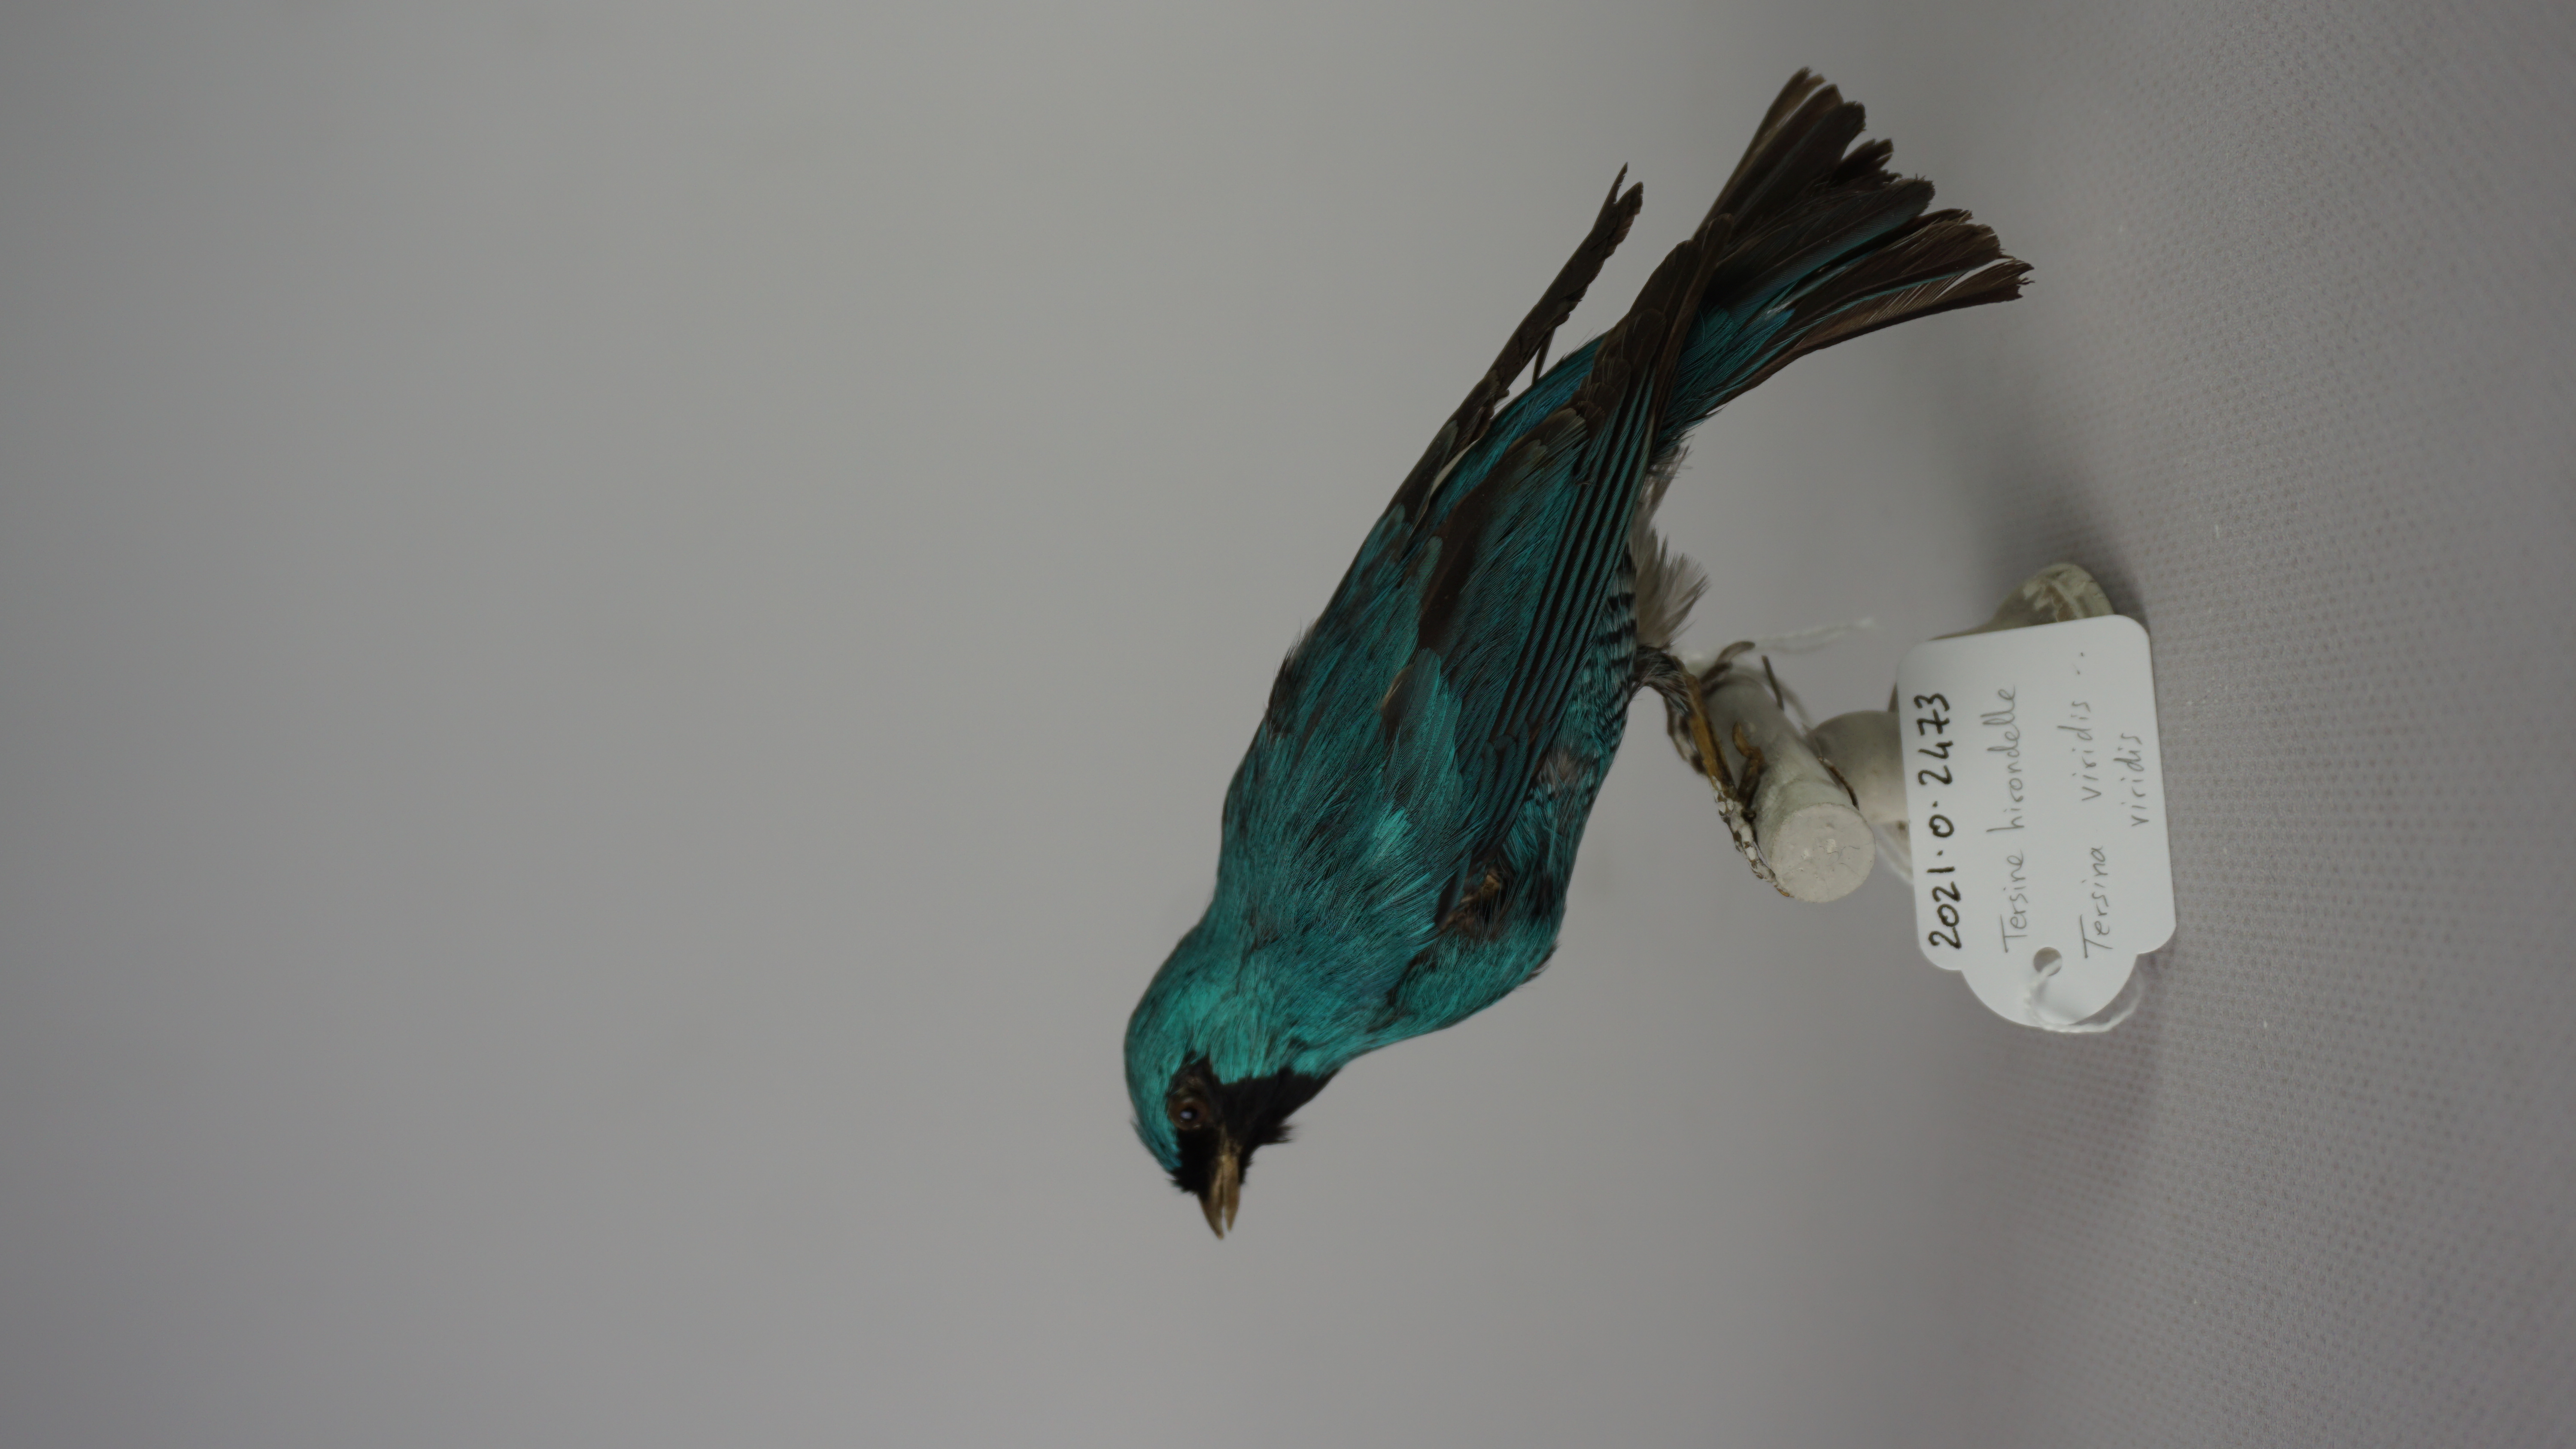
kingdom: Animalia
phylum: Chordata
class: Aves
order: Passeriformes
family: Thraupidae
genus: Tersina
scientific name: Tersina viridis
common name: Swallow tanager
